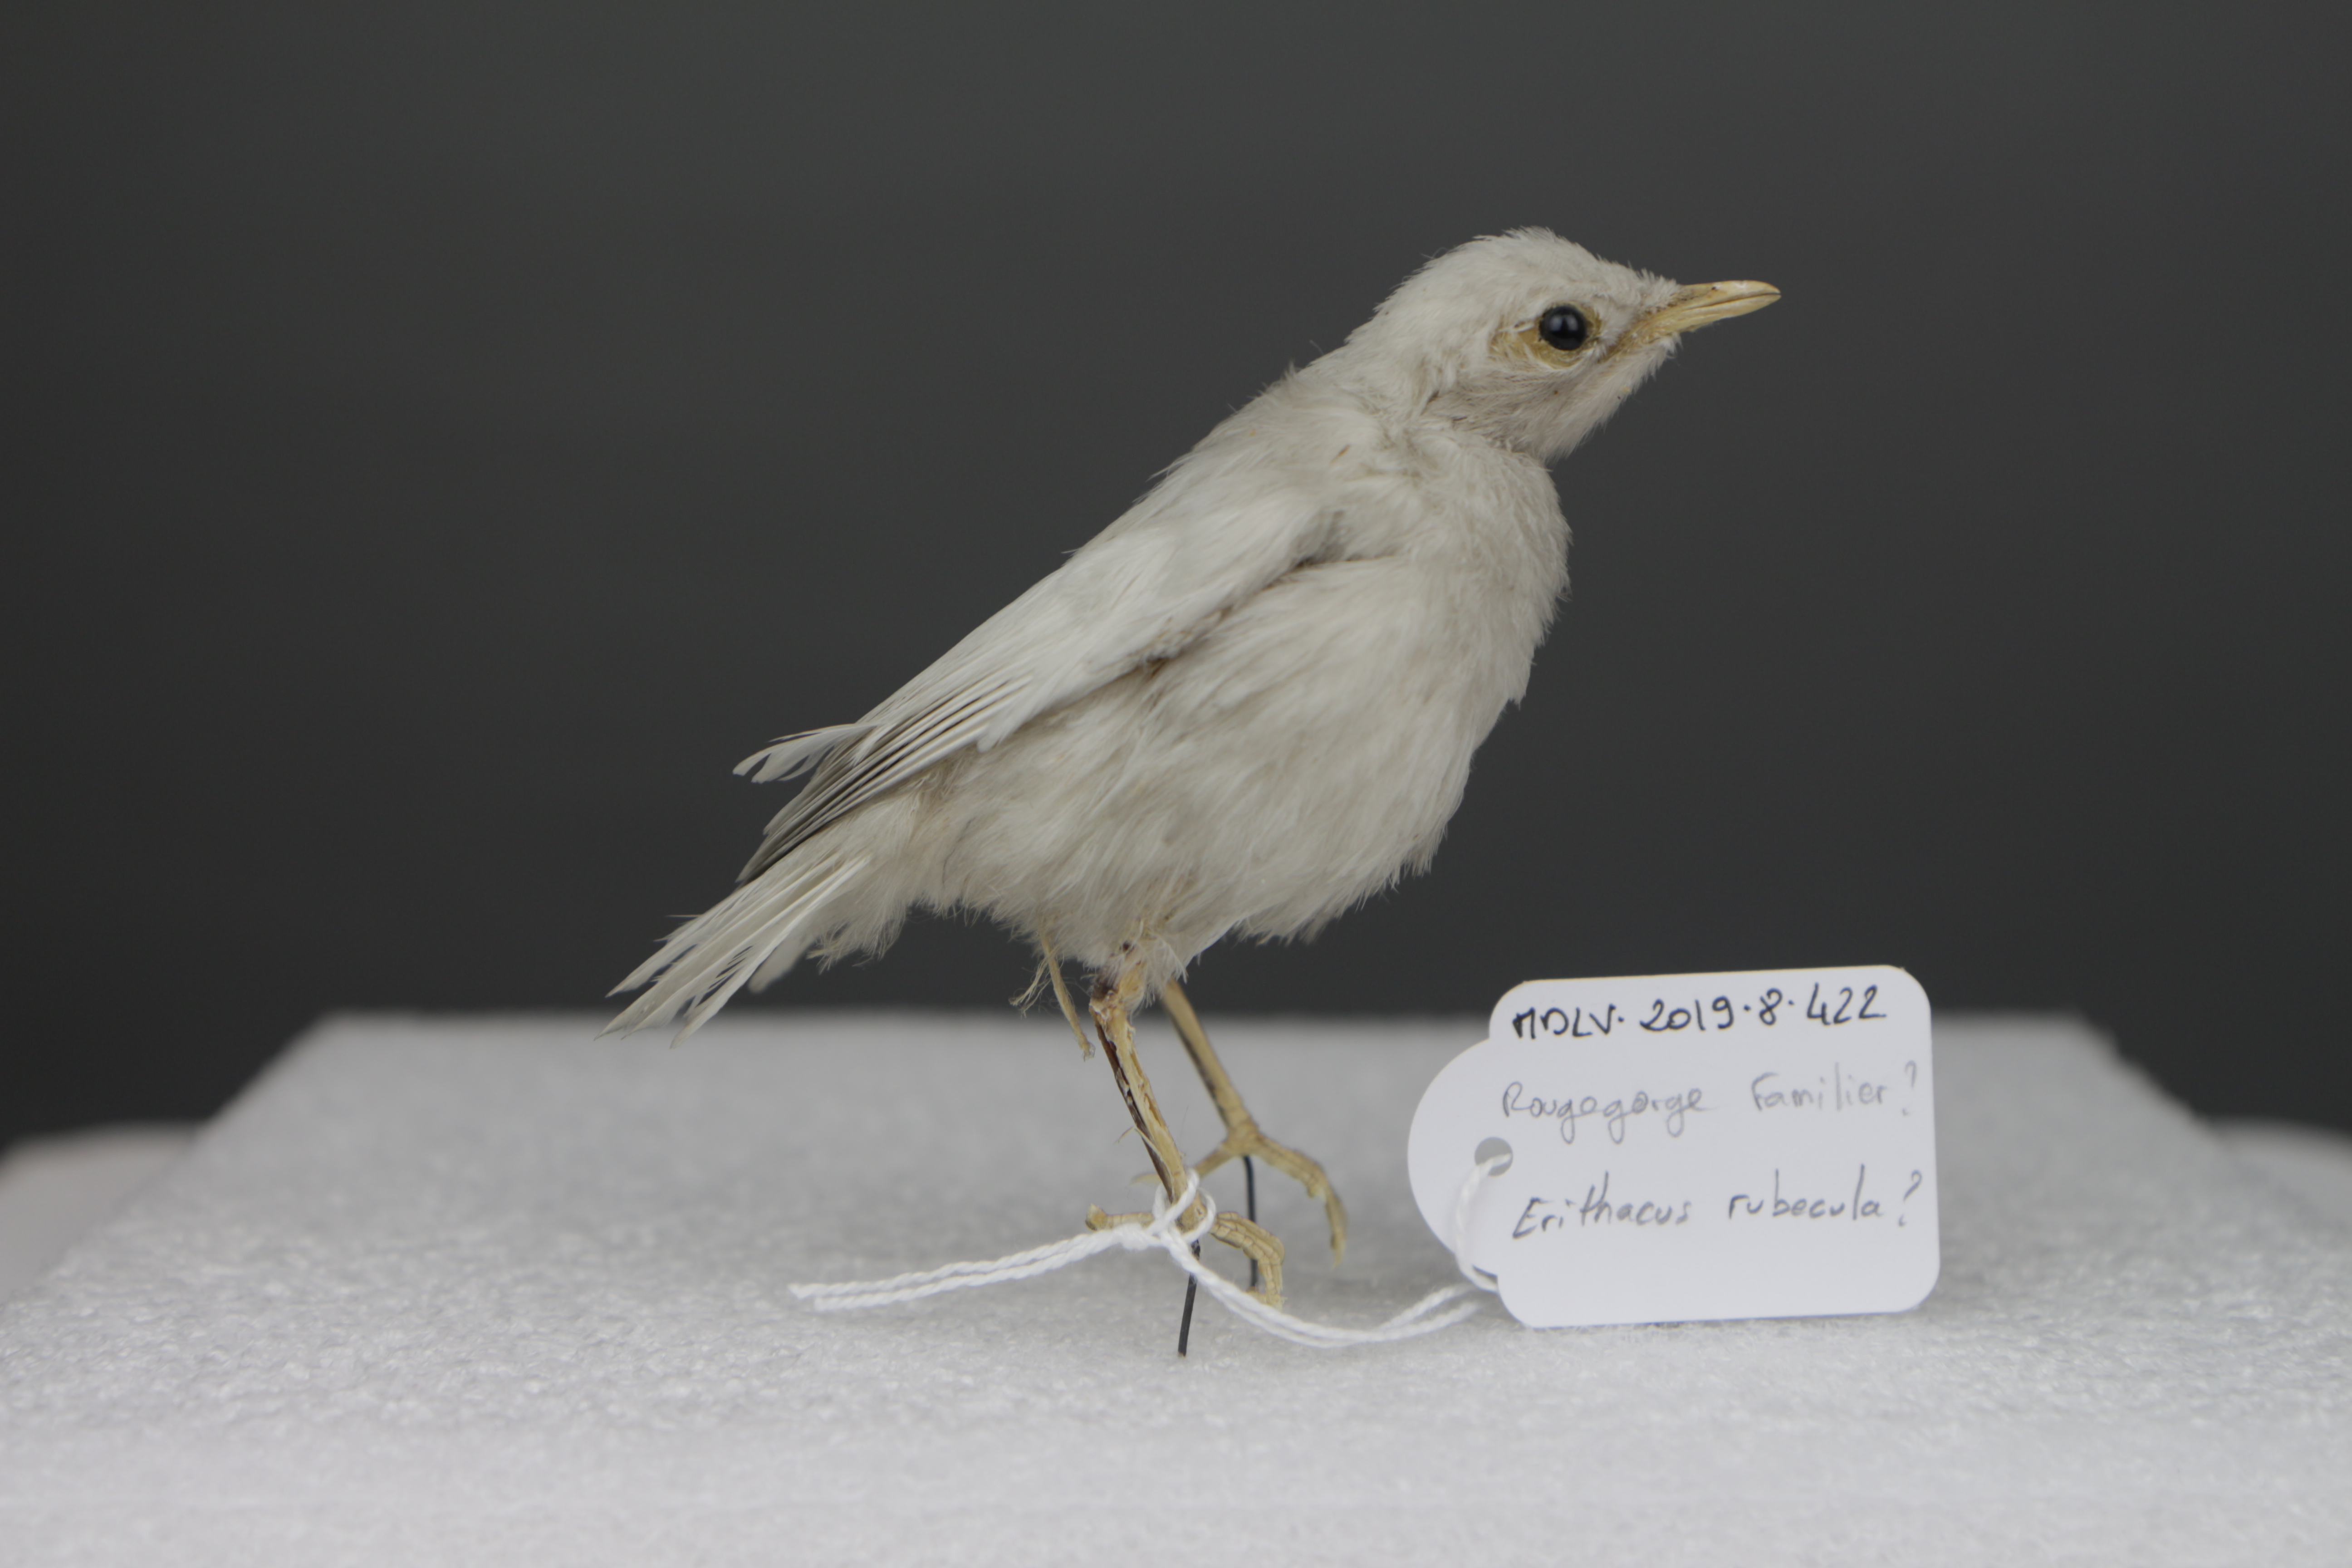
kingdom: Animalia
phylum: Chordata
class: Aves
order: Passeriformes
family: Muscicapidae
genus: Erithacus
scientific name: Erithacus rubecula
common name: European robin
